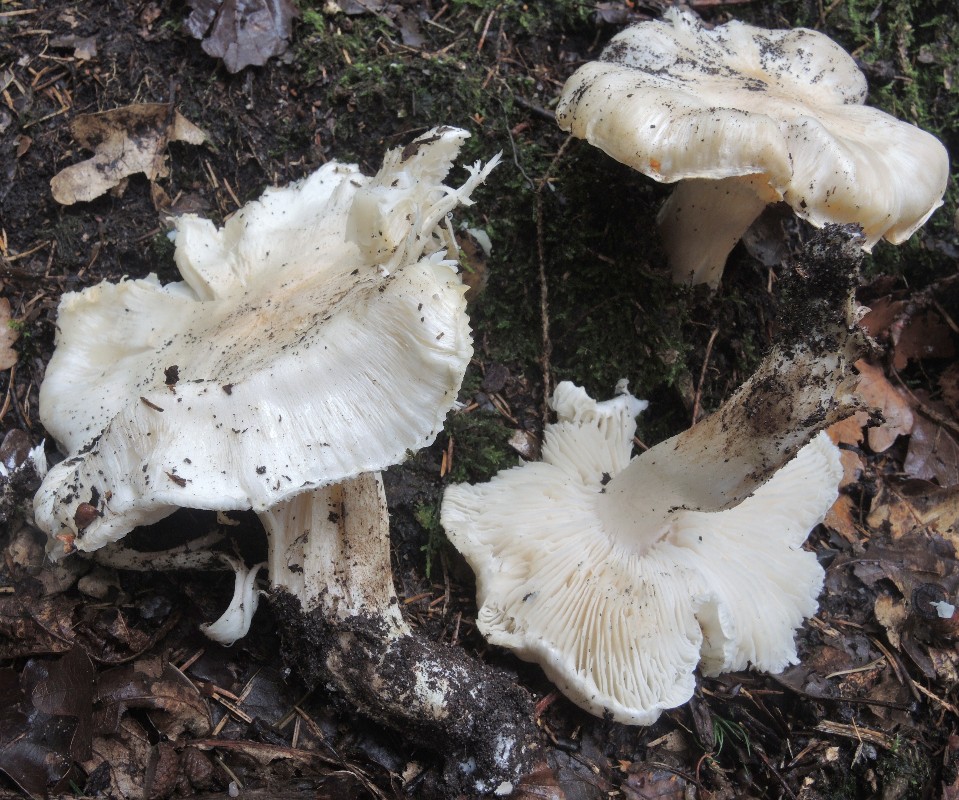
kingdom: Fungi
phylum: Basidiomycota
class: Agaricomycetes
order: Agaricales
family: Tricholomataceae
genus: Tricholoma
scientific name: Tricholoma columbetta
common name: silke-ridderhat
